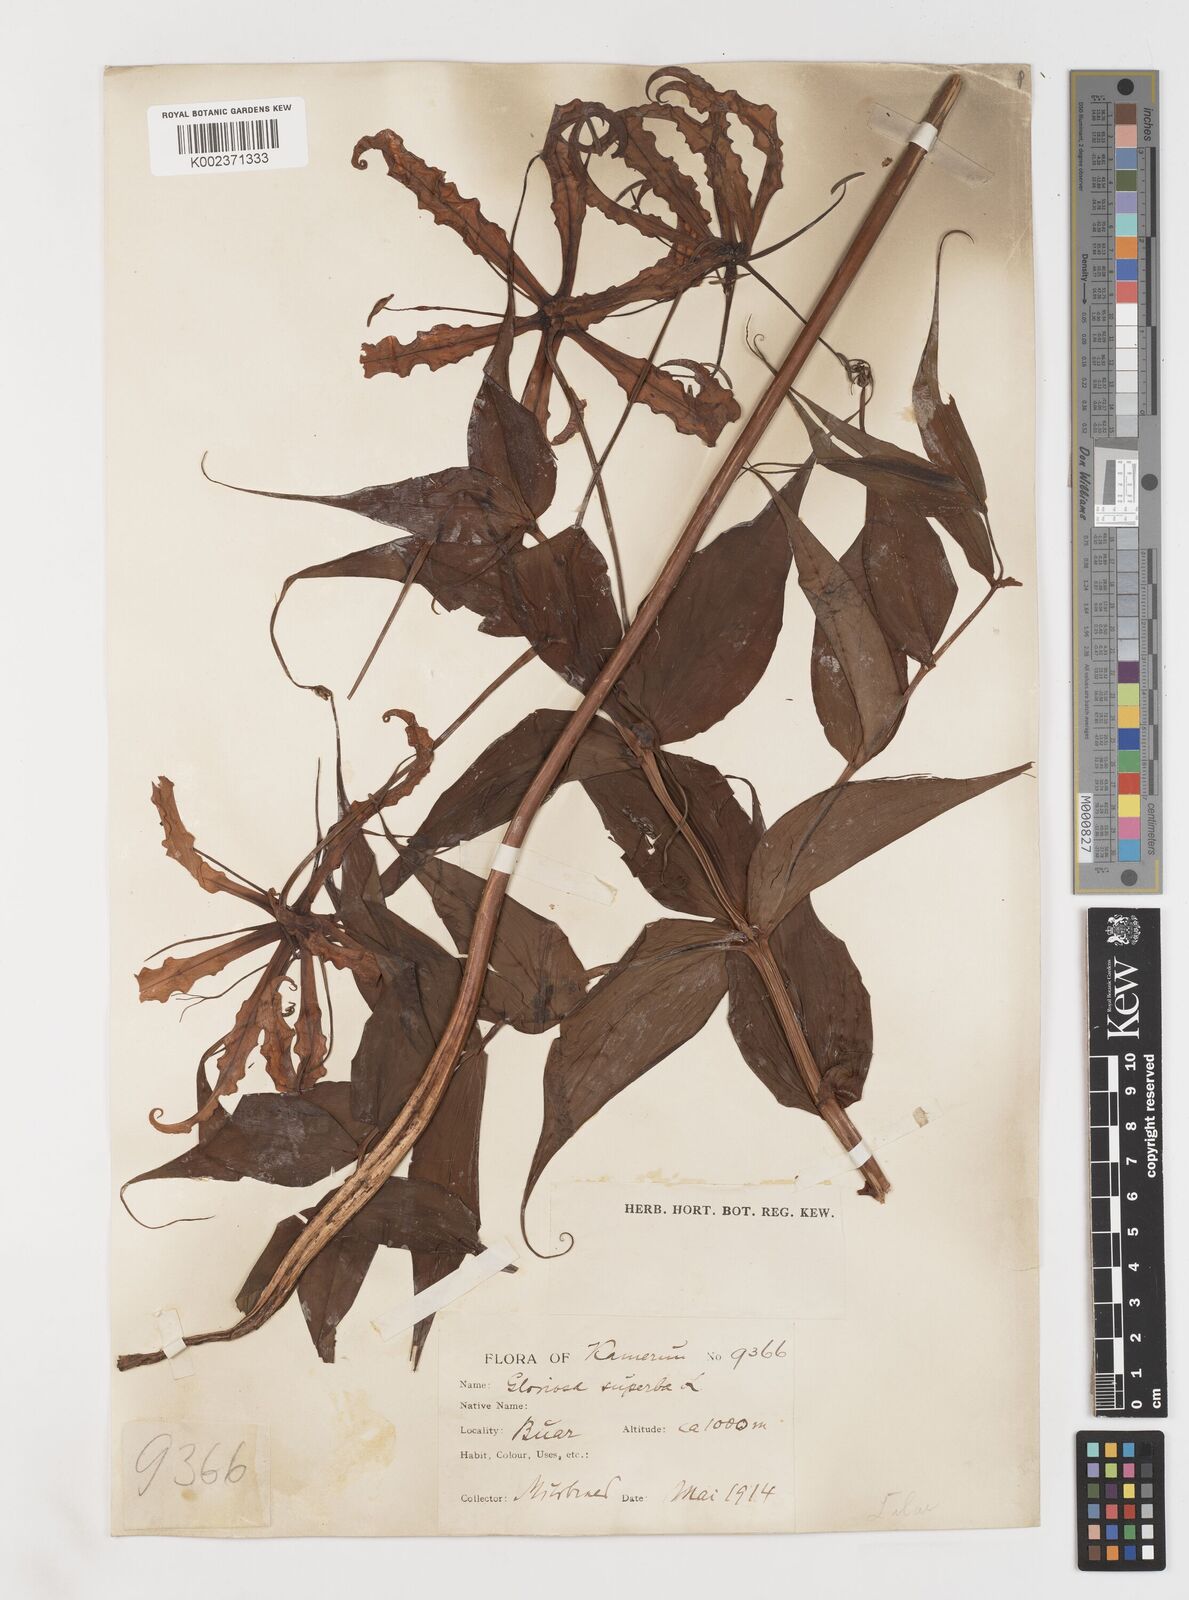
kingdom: Plantae
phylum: Tracheophyta
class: Liliopsida
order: Liliales
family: Colchicaceae
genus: Gloriosa
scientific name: Gloriosa superba
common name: Flame lily
